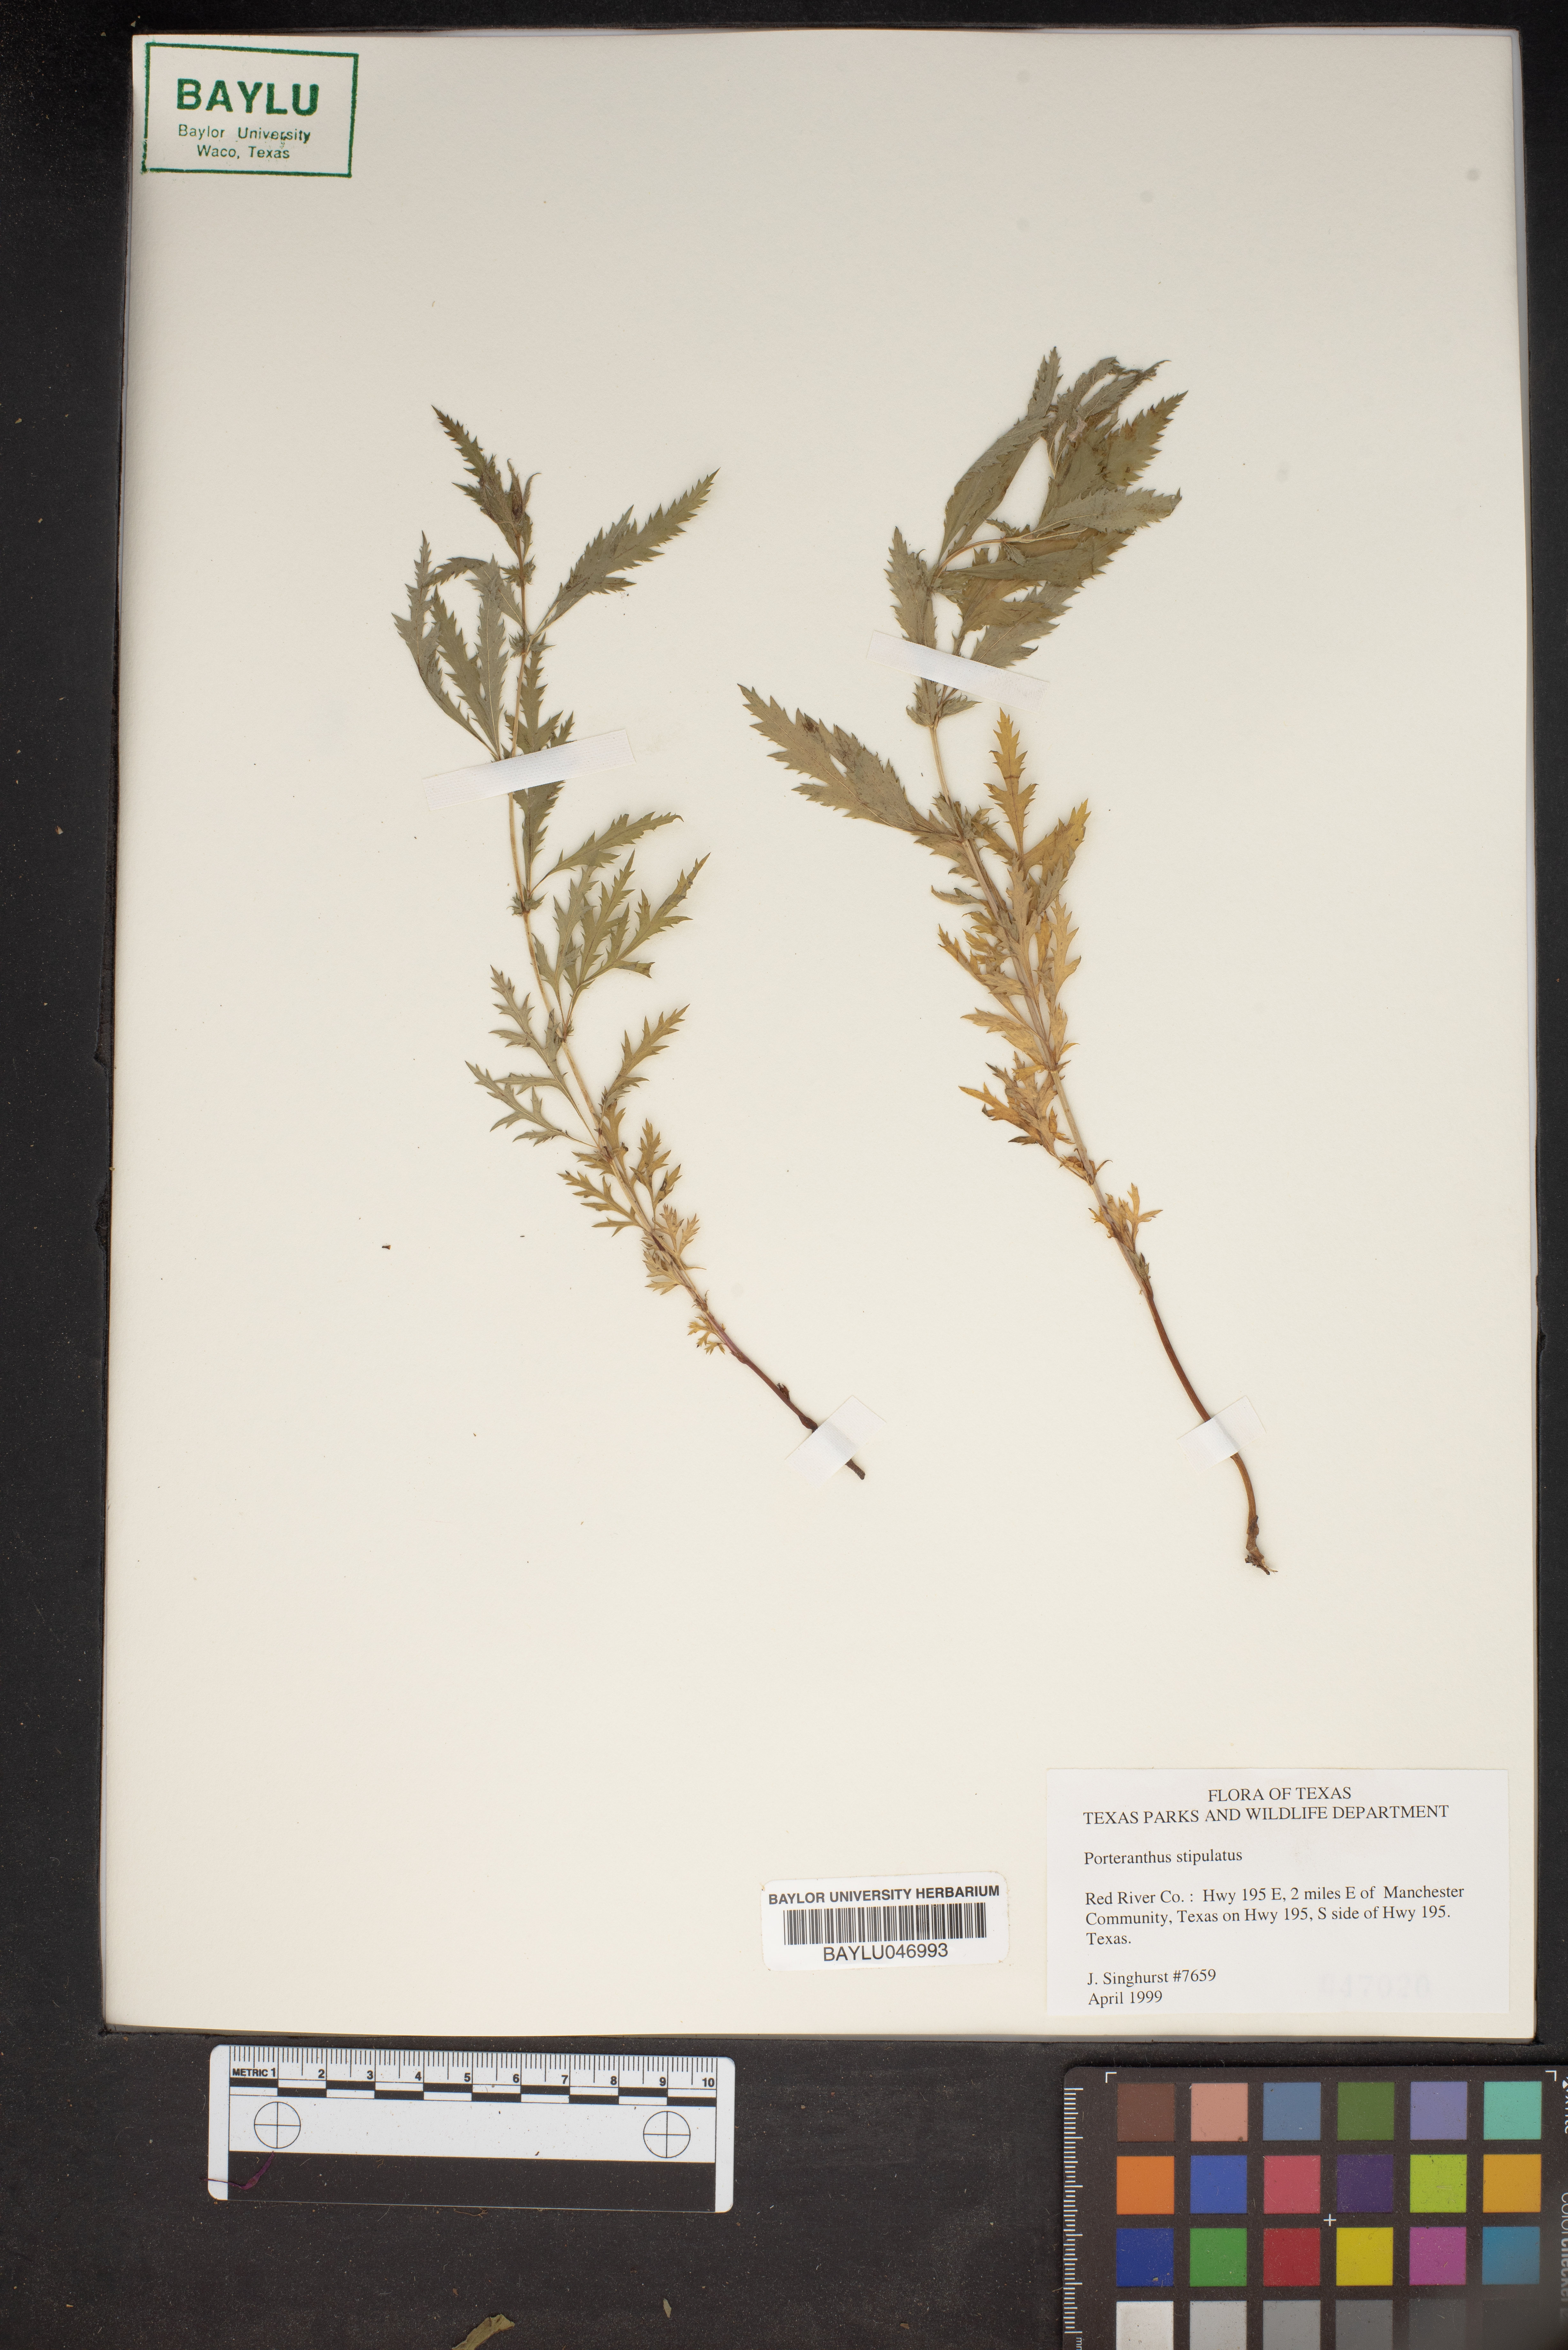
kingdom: Plantae
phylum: Tracheophyta
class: Magnoliopsida
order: Rosales
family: Rosaceae
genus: Gillenia
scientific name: Gillenia stipulata
